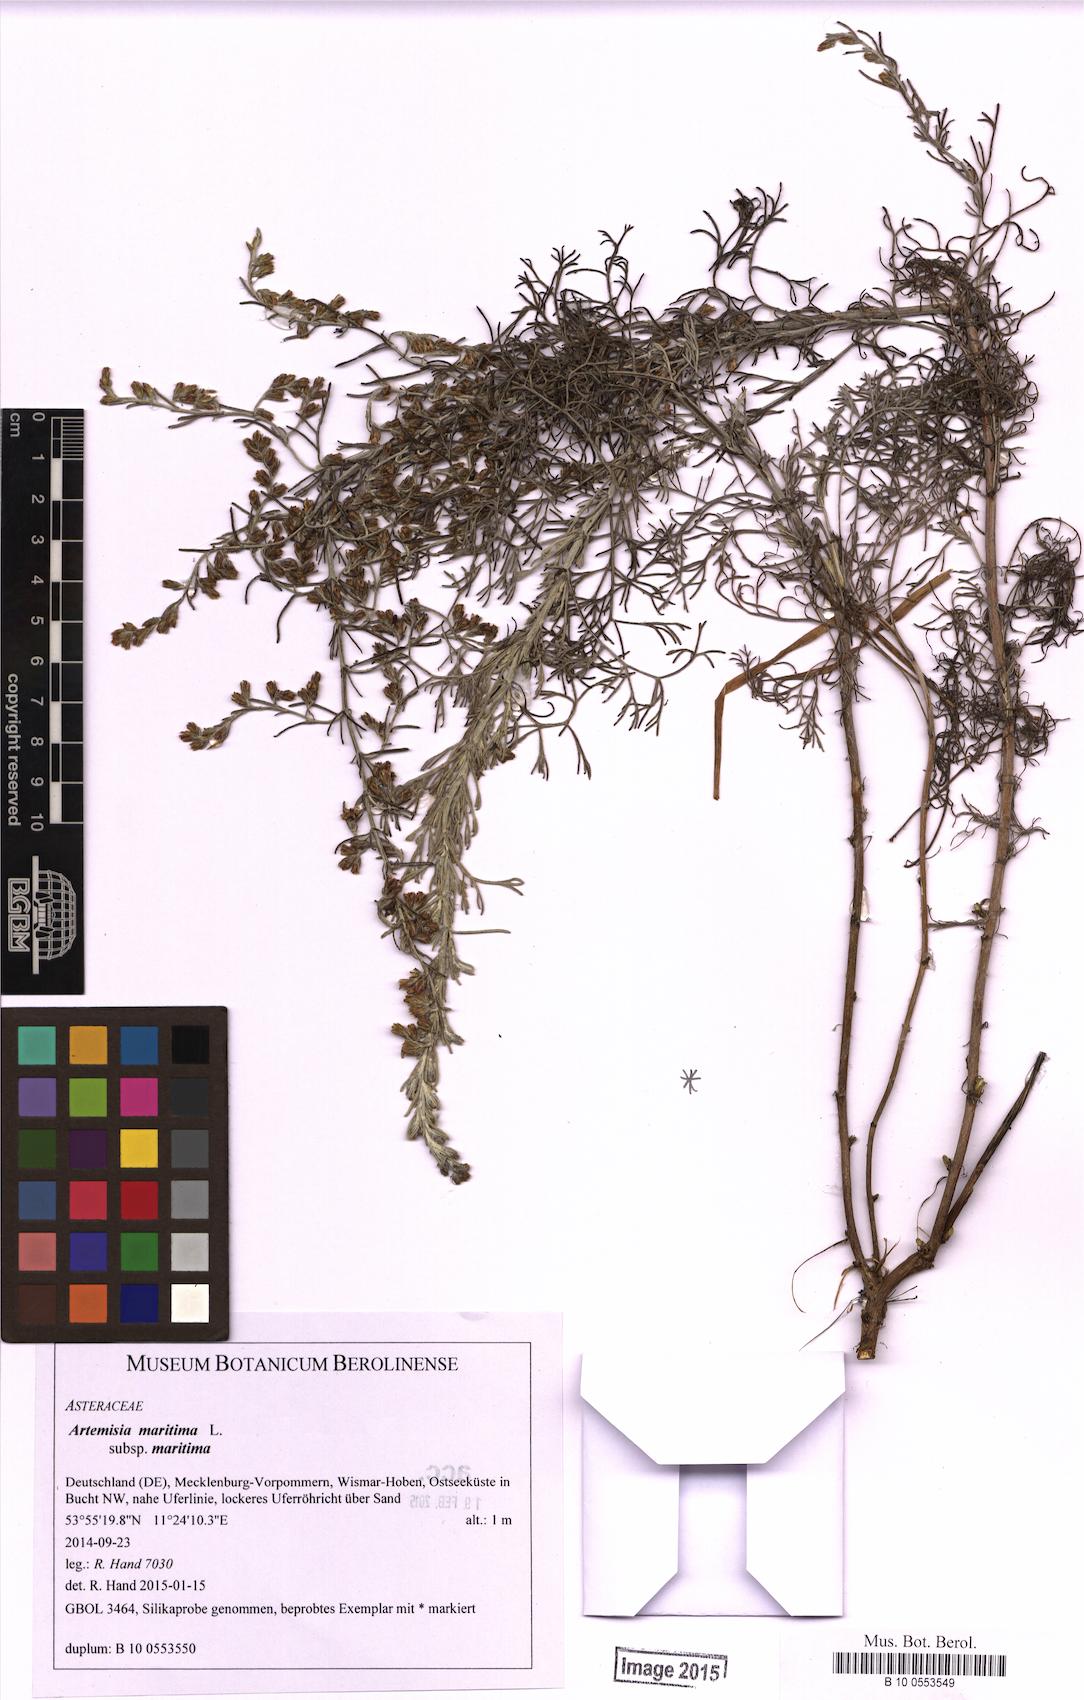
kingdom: Plantae
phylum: Tracheophyta
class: Magnoliopsida
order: Asterales
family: Asteraceae
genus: Artemisia
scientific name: Artemisia maritima
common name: Wormseed
